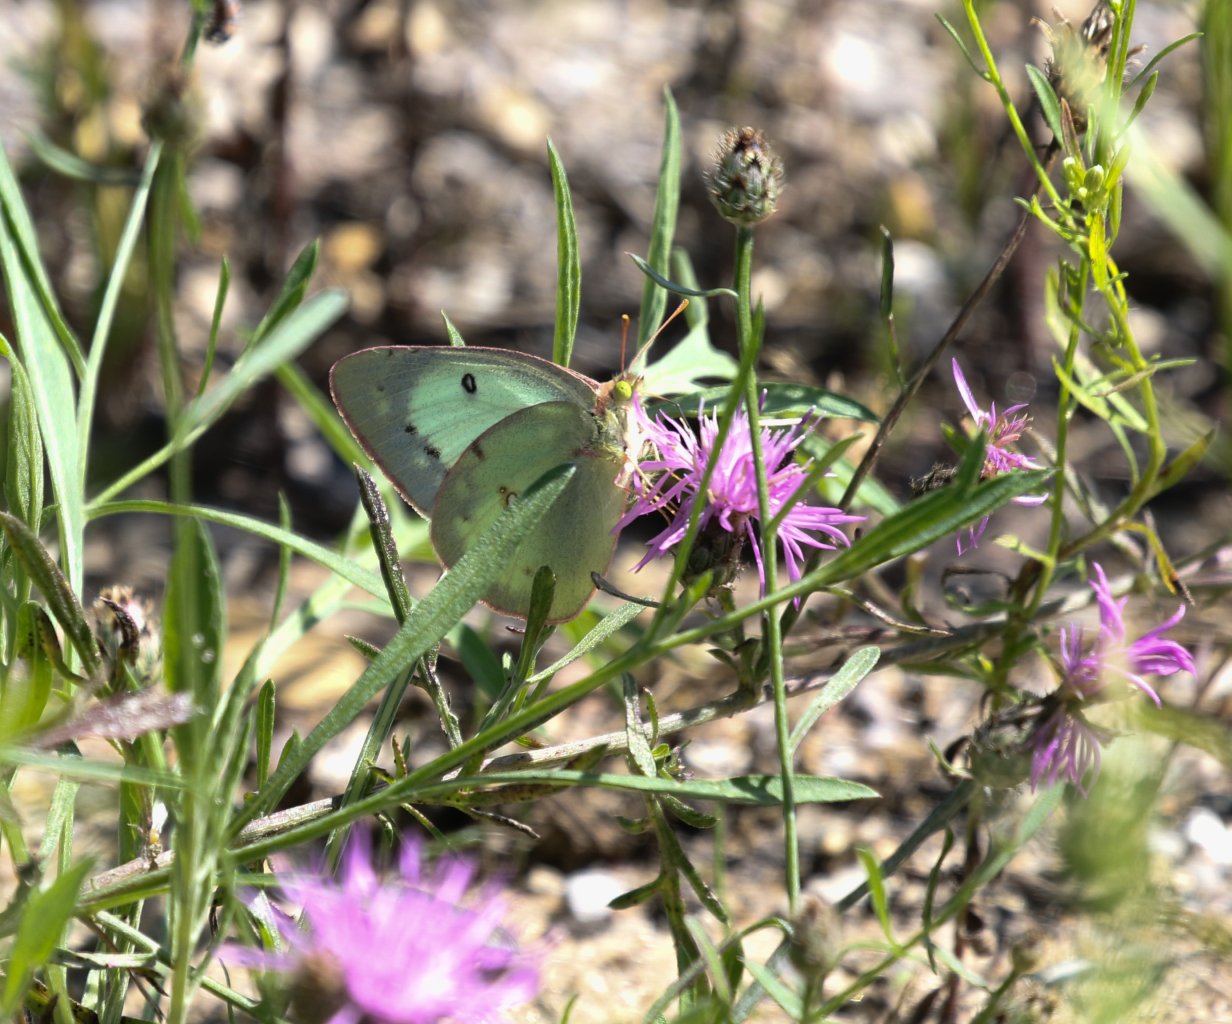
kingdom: Animalia
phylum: Arthropoda
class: Insecta
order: Lepidoptera
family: Pieridae
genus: Colias
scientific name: Colias philodice
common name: Clouded Sulphur
